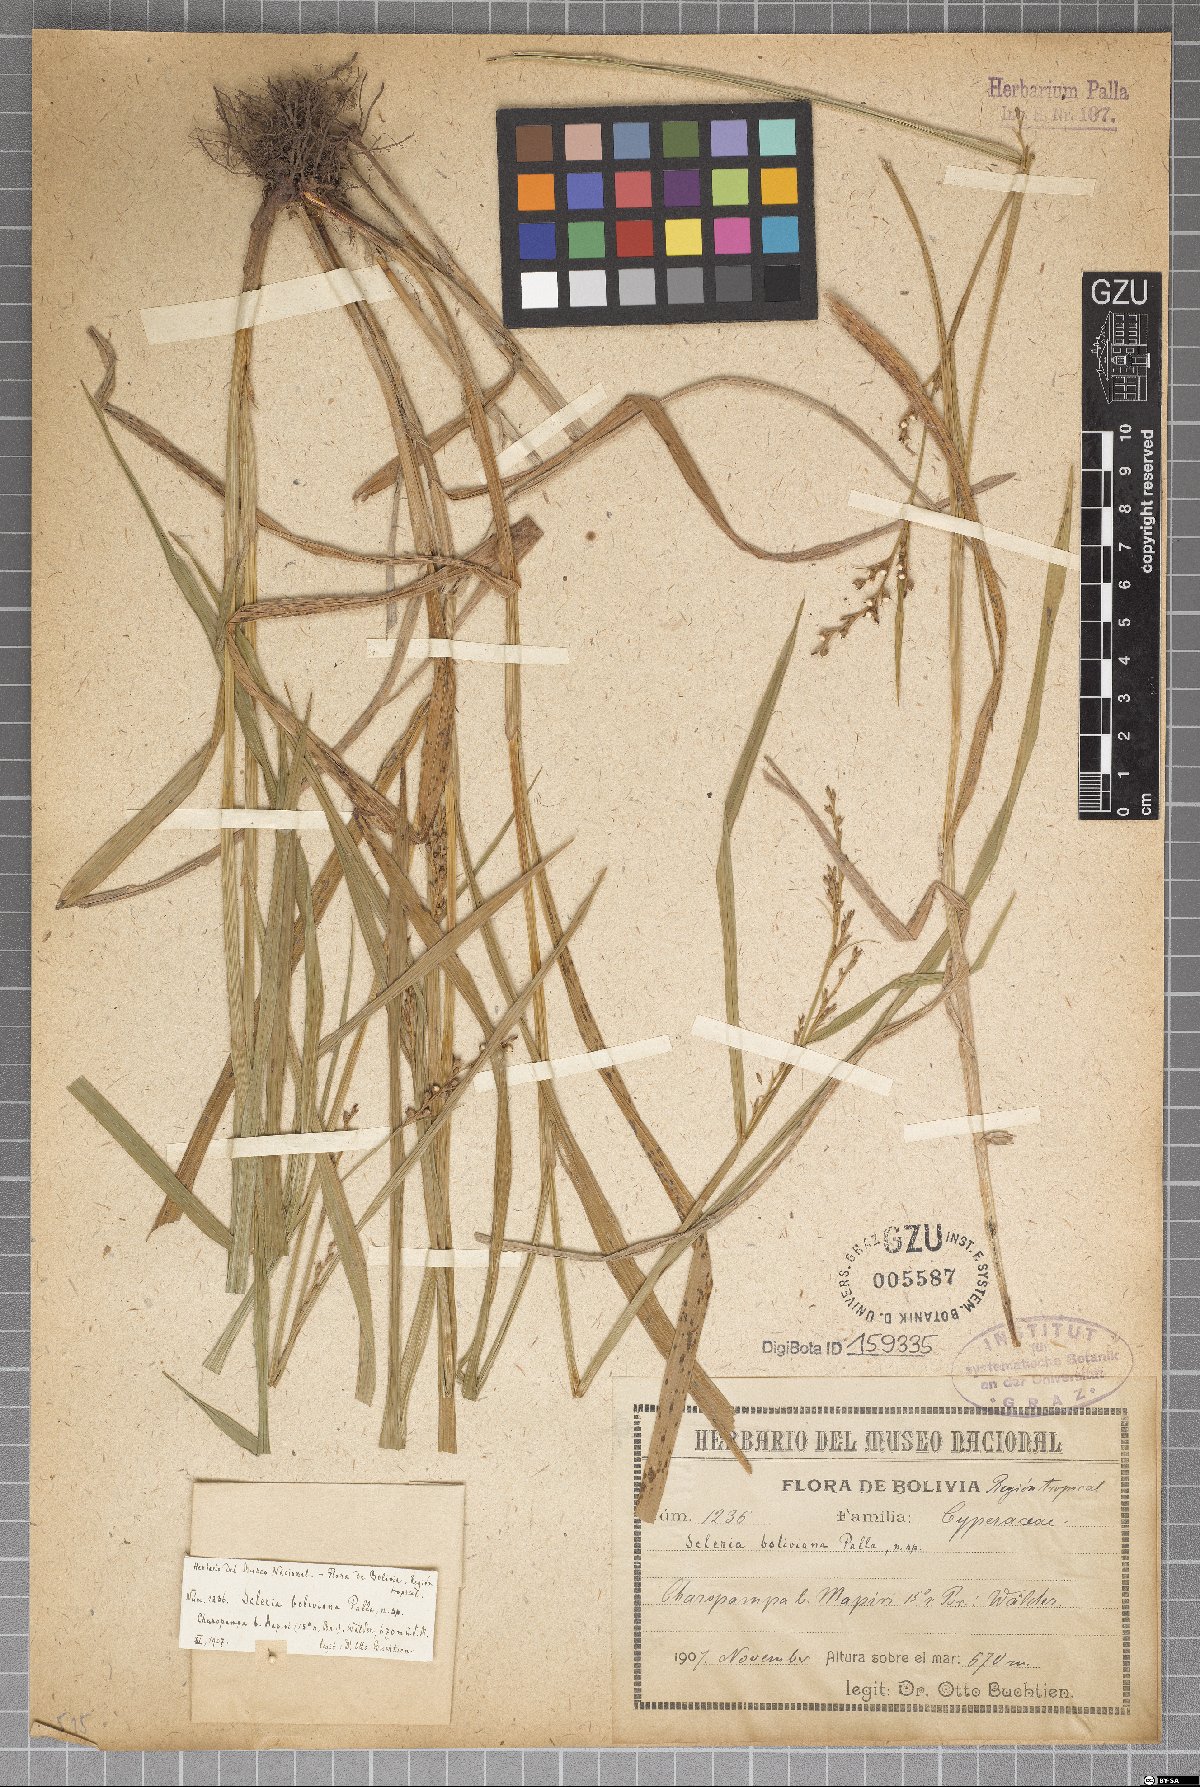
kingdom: Plantae
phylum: Tracheophyta
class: Liliopsida
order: Poales
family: Cyperaceae
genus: Scleria
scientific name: Scleria gaertneri
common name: Cortadera blanca
